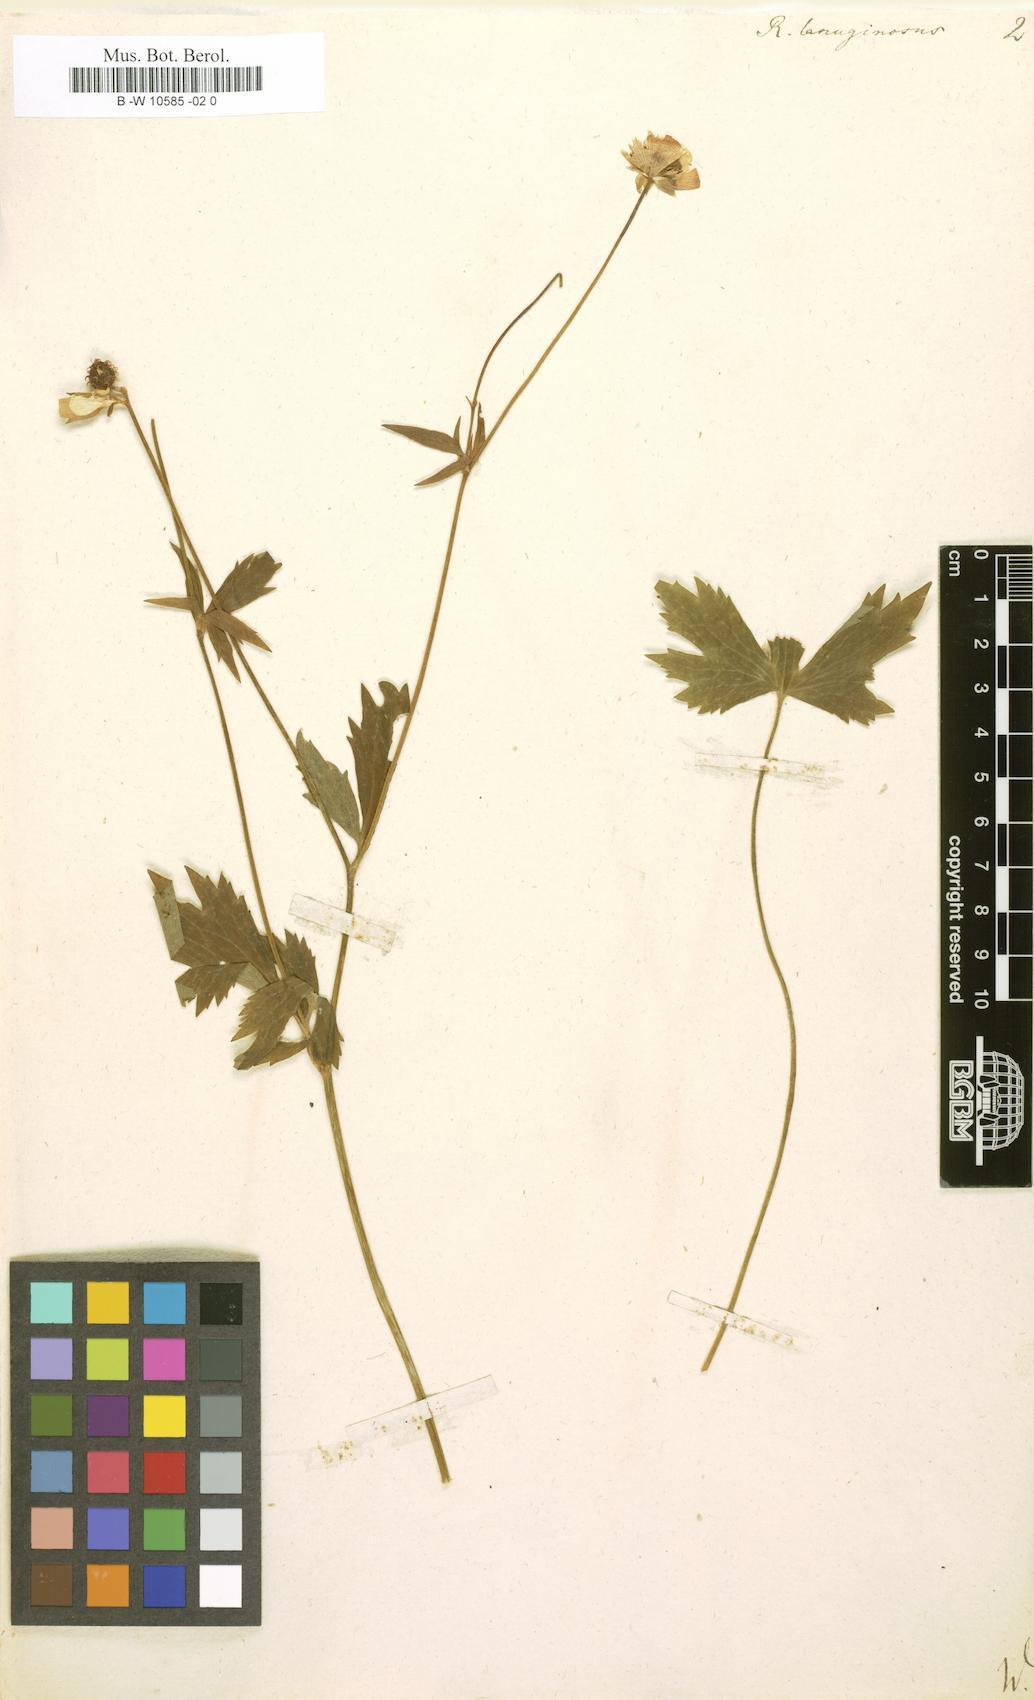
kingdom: Plantae
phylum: Tracheophyta
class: Magnoliopsida
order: Ranunculales
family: Ranunculaceae
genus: Ranunculus
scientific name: Ranunculus lanuginosus
